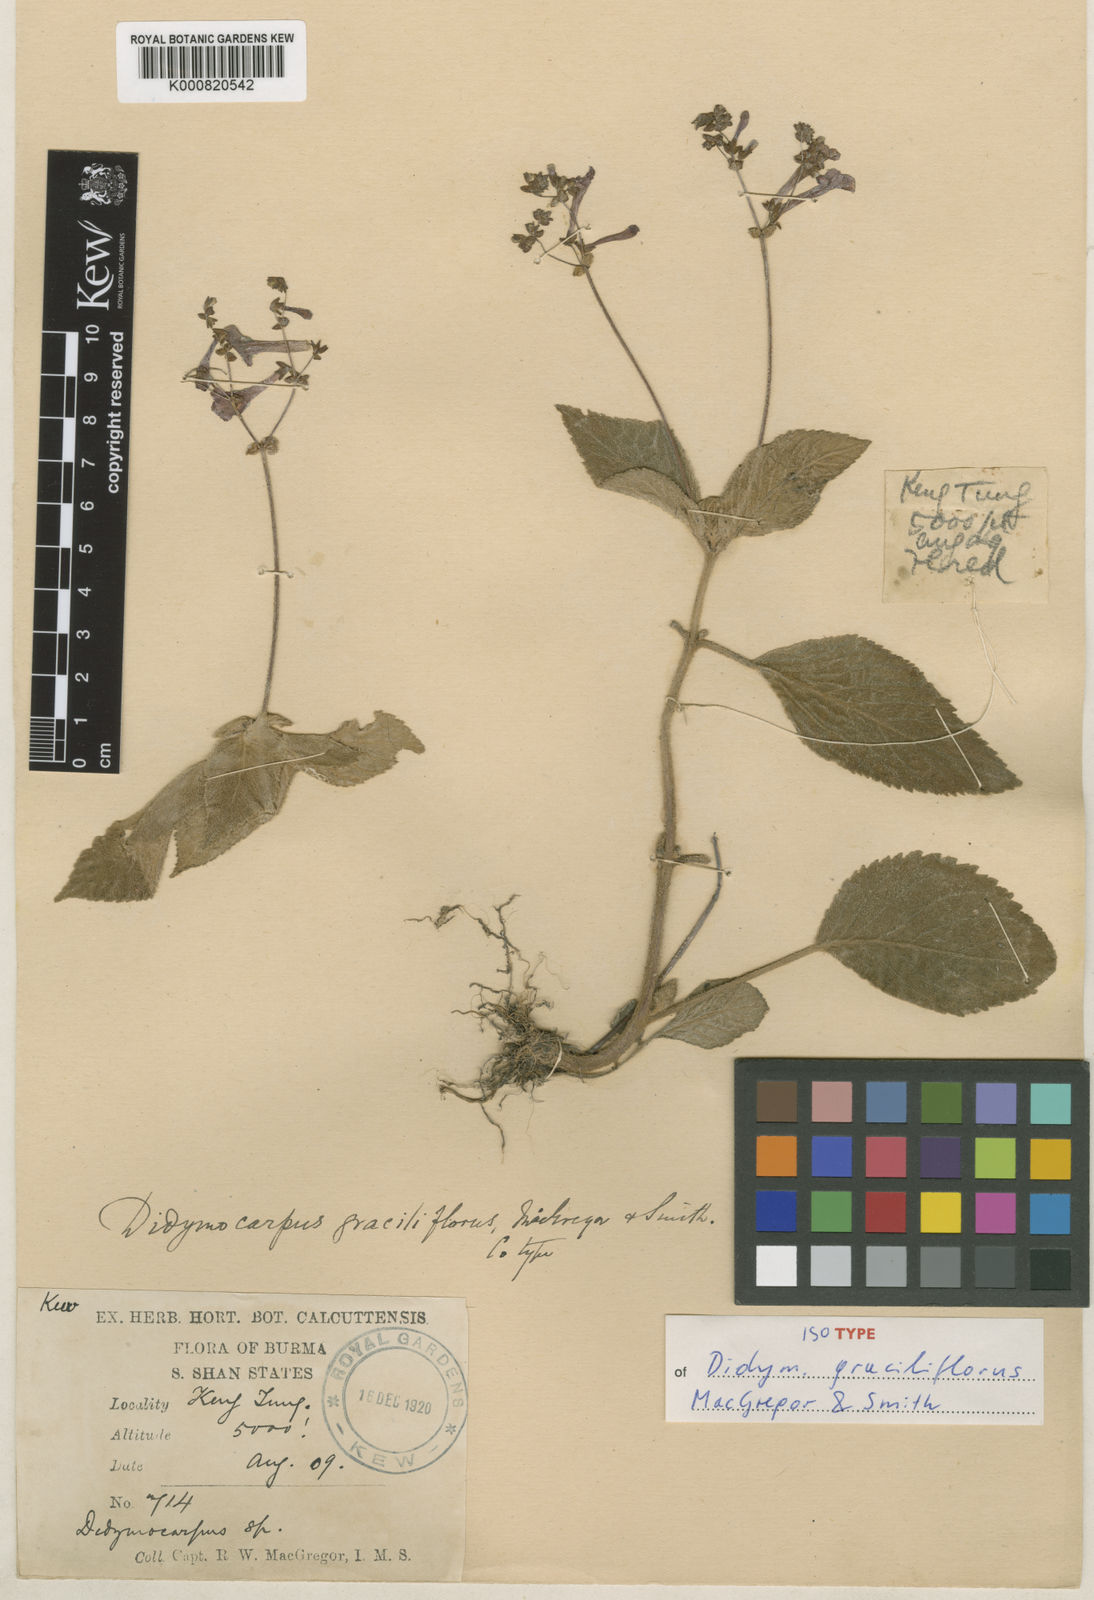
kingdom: Plantae
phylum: Tracheophyta
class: Magnoliopsida
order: Lamiales
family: Gesneriaceae
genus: Didymocarpus
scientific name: Didymocarpus graciliflorus
